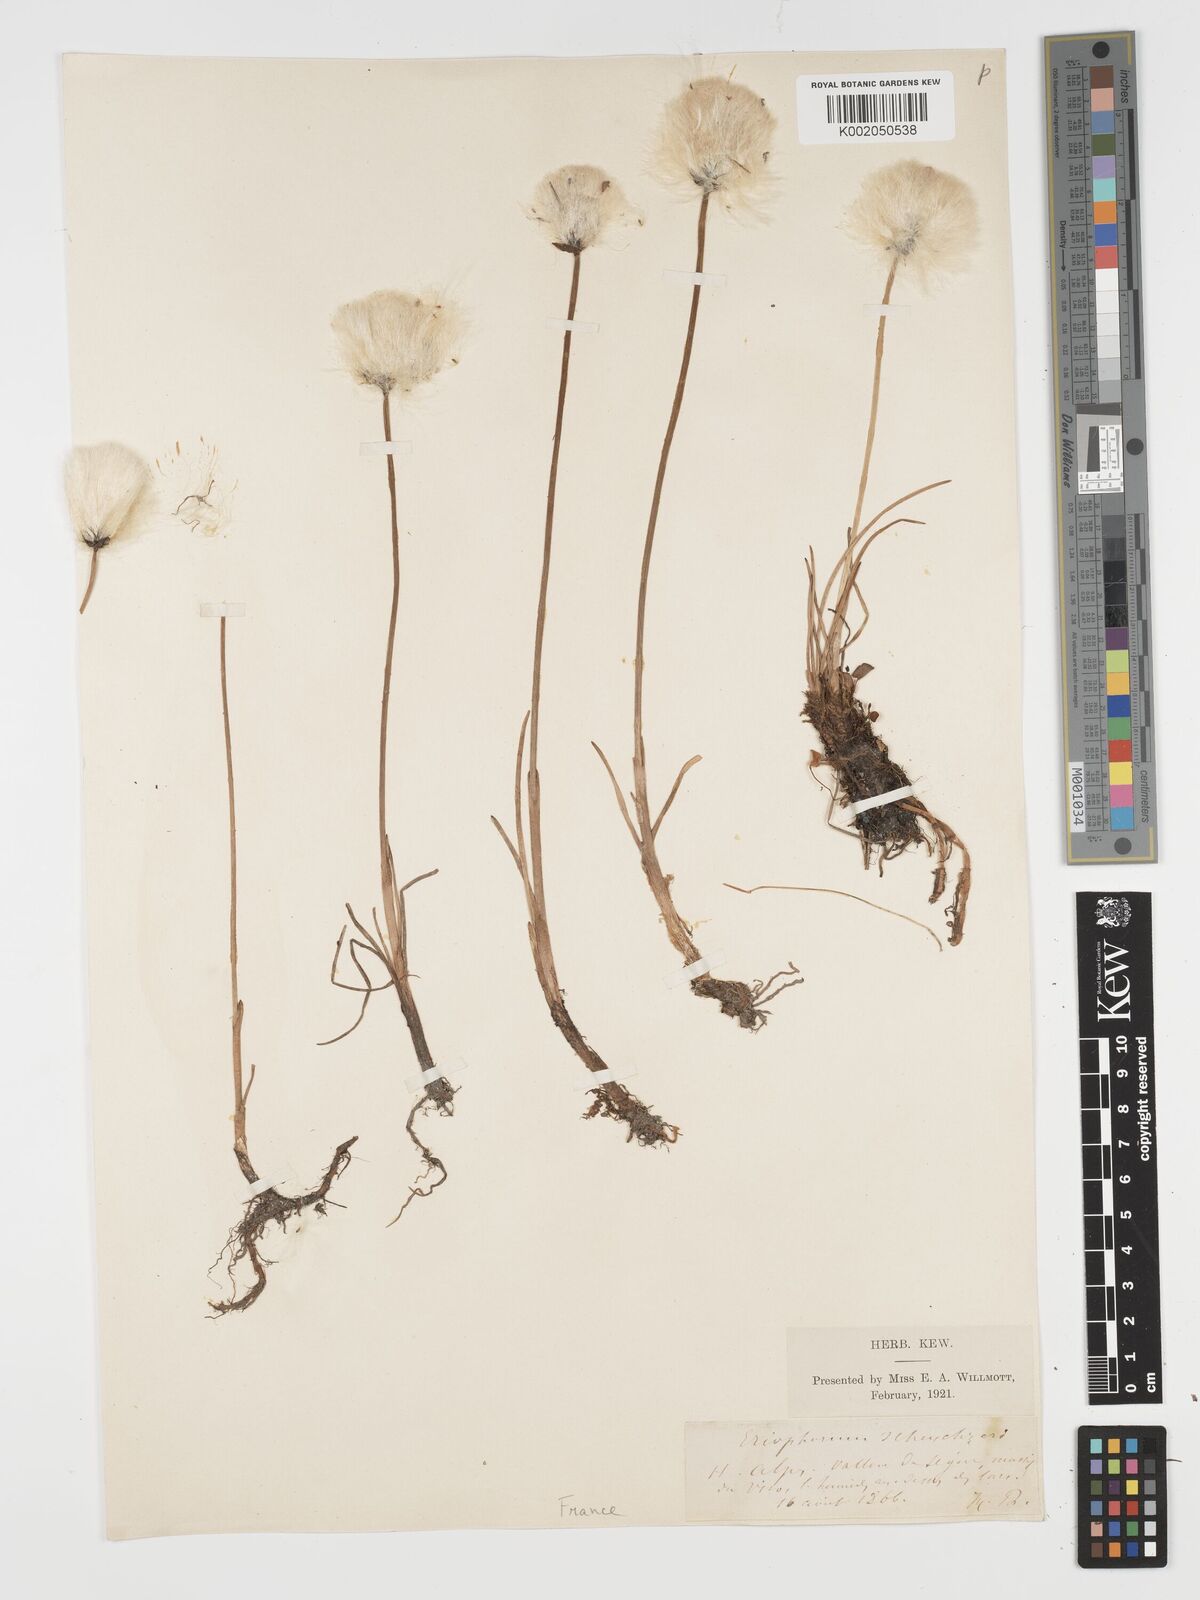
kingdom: Plantae
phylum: Tracheophyta
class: Liliopsida
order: Poales
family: Cyperaceae
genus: Eriophorum
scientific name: Eriophorum scheuchzeri
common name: Scheuchzer's cottongrass
